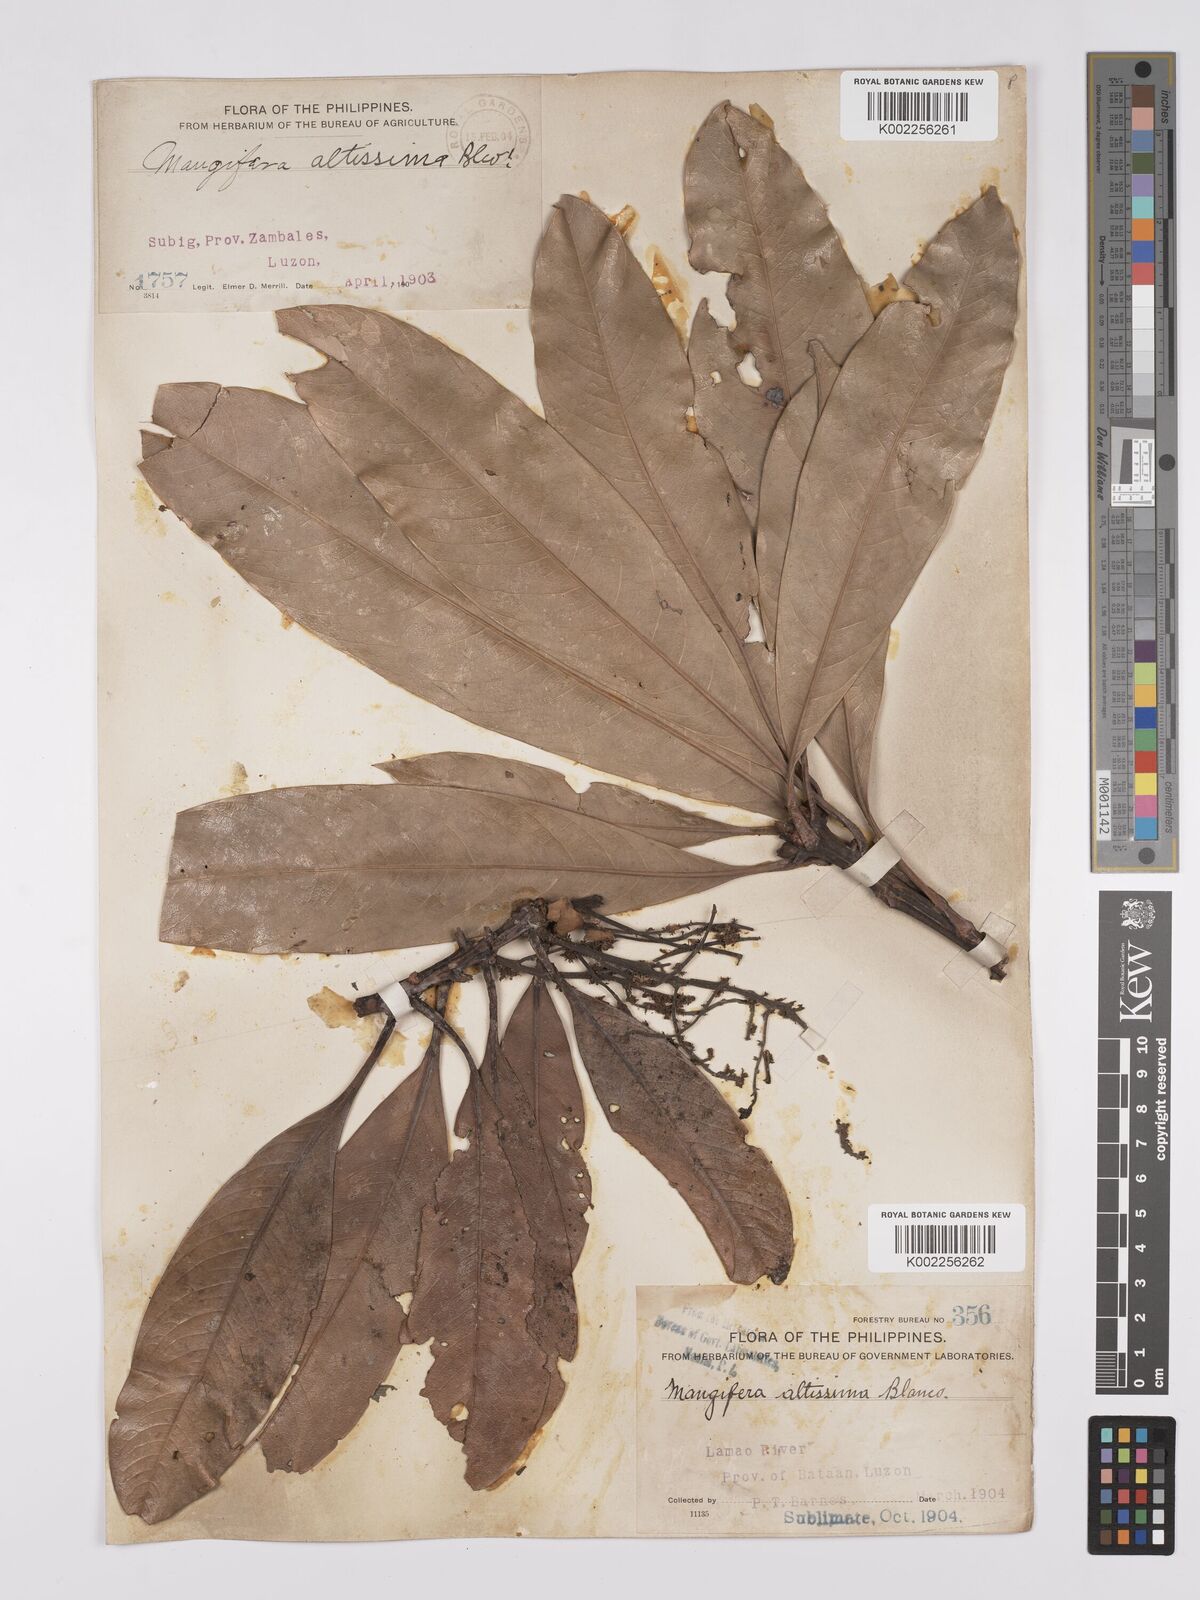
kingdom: Plantae
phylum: Tracheophyta
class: Magnoliopsida
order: Sapindales
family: Anacardiaceae
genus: Mangifera
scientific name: Mangifera altissima
